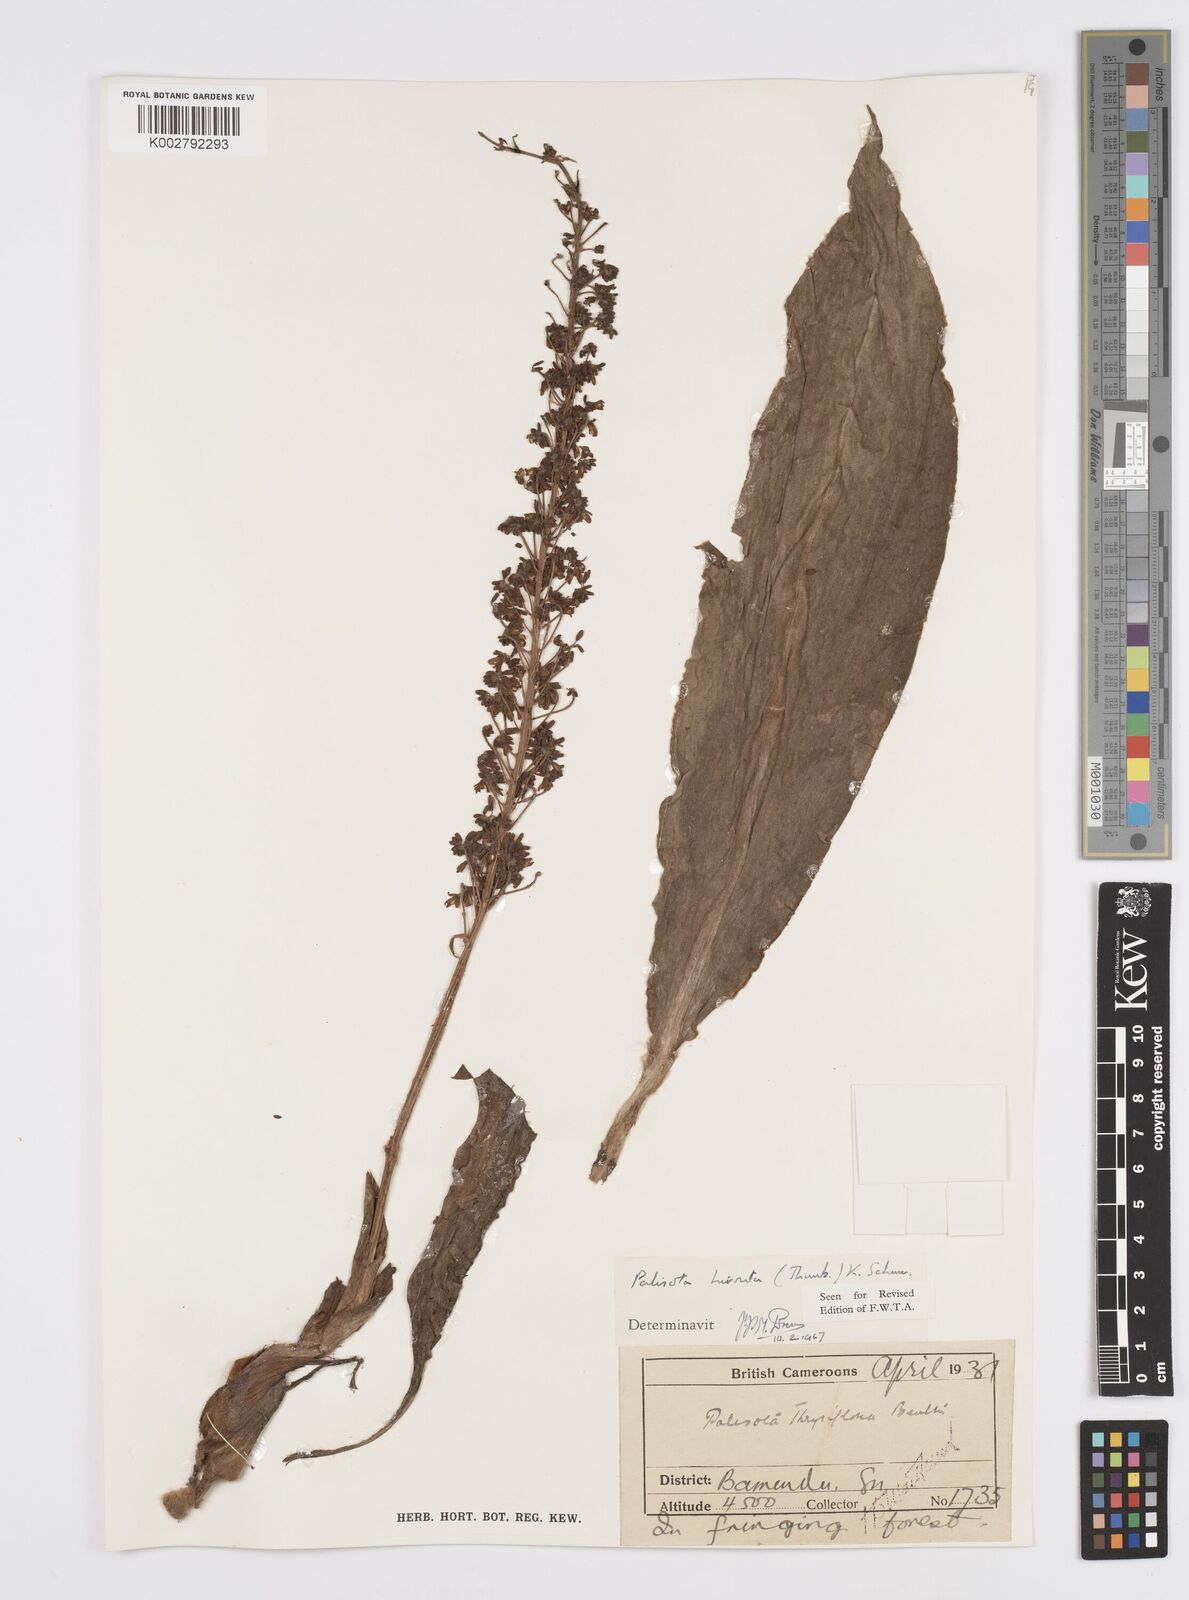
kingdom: Plantae
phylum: Tracheophyta
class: Liliopsida
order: Commelinales
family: Commelinaceae
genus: Palisota
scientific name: Palisota hirsuta
